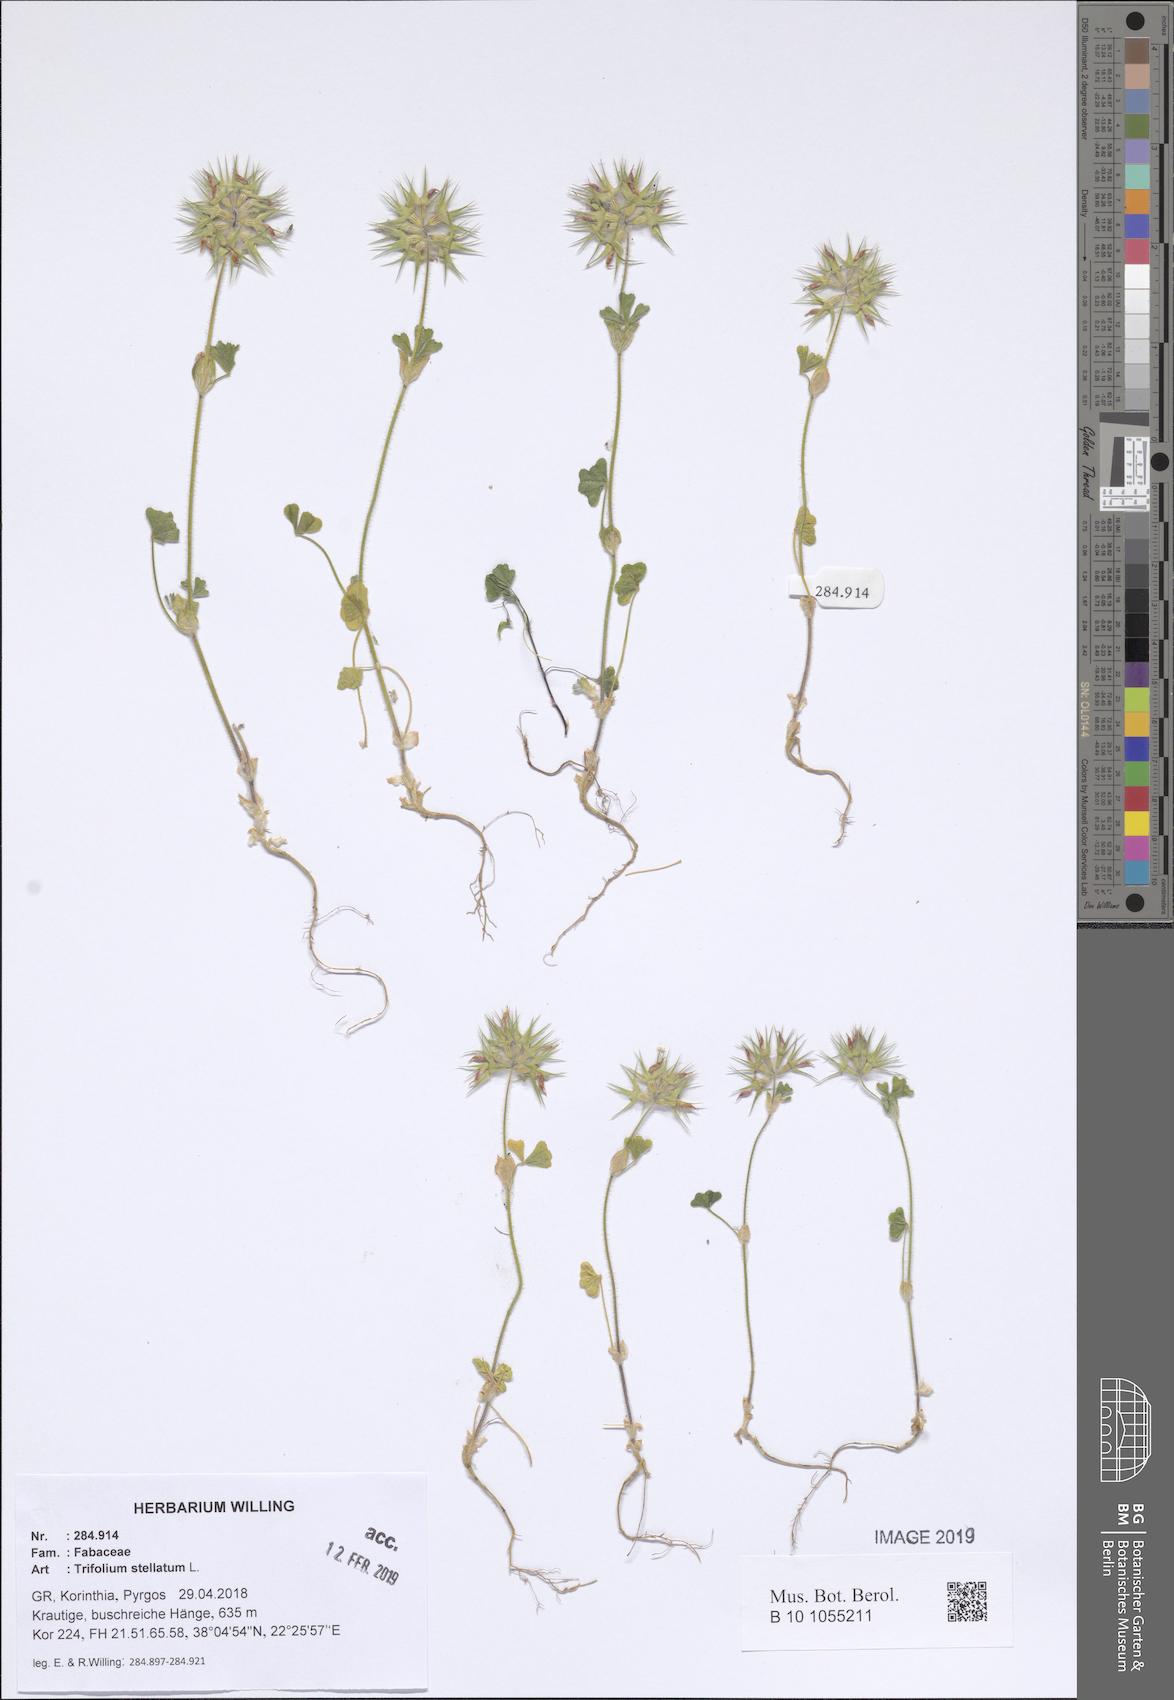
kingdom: Plantae
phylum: Tracheophyta
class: Magnoliopsida
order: Fabales
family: Fabaceae
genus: Trifolium
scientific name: Trifolium stellatum
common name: Starry clover
